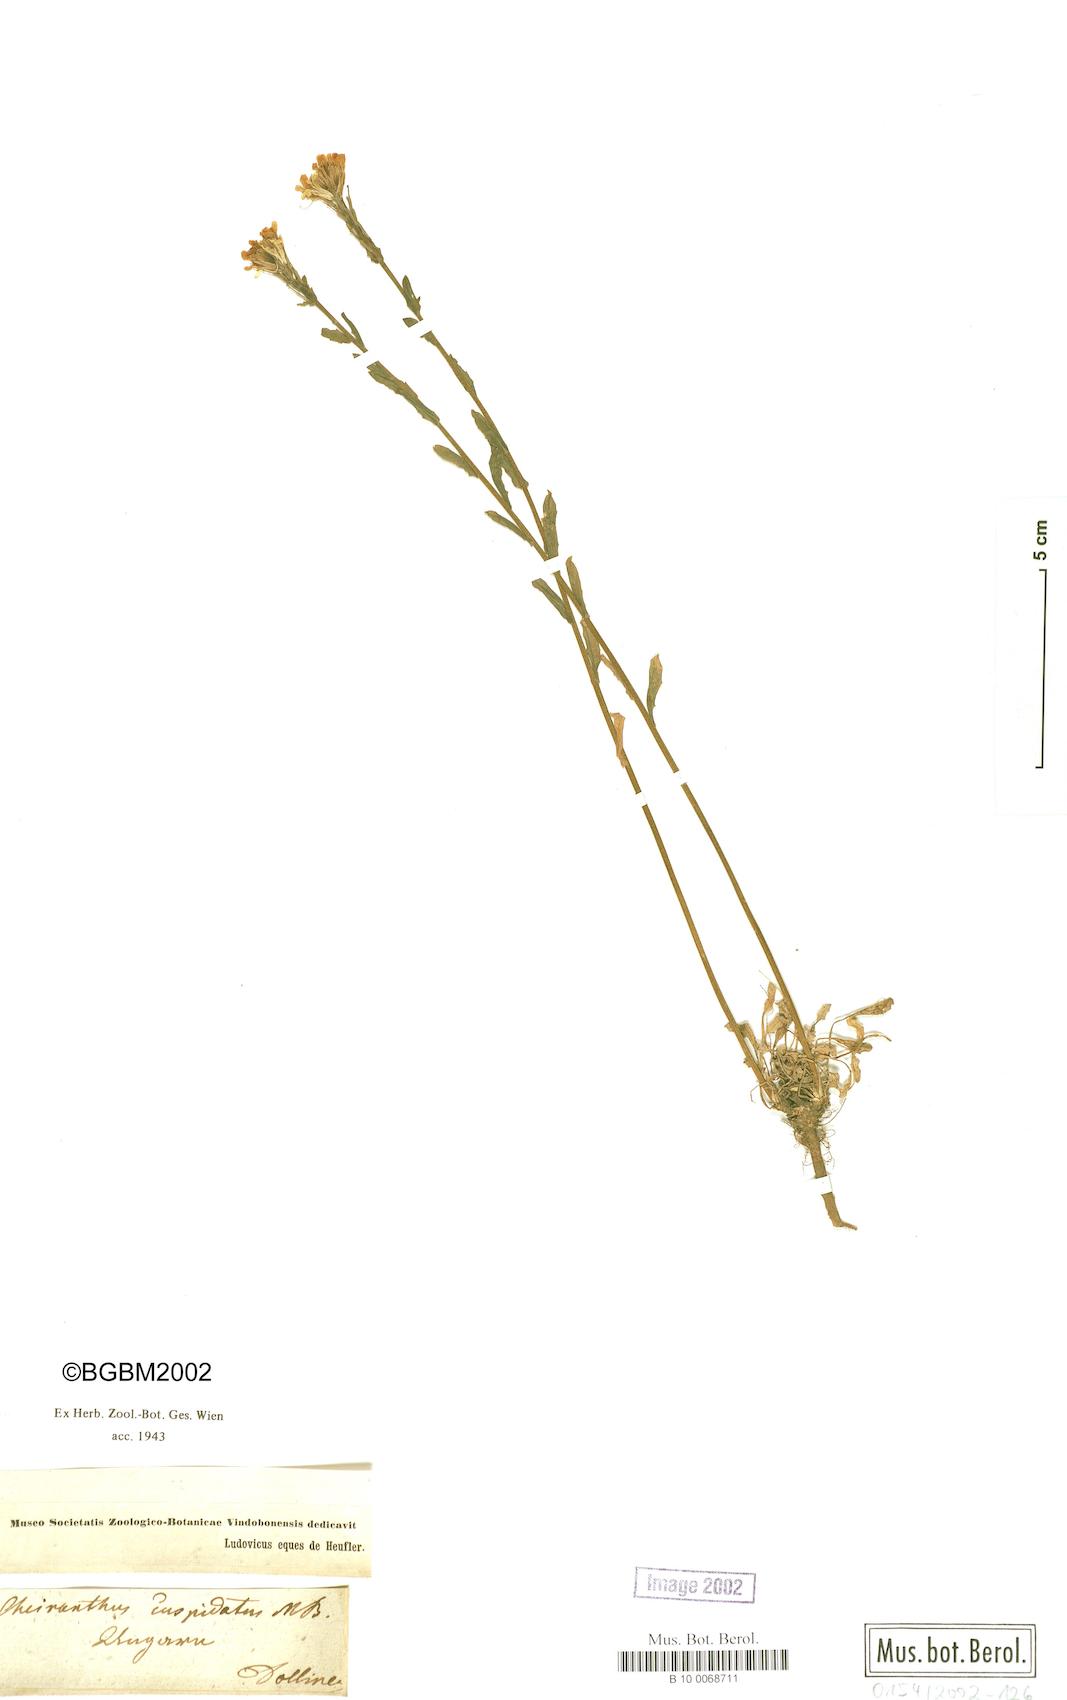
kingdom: Plantae
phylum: Tracheophyta
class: Magnoliopsida
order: Brassicales
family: Brassicaceae
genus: Erysimum
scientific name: Erysimum cuspidatum
